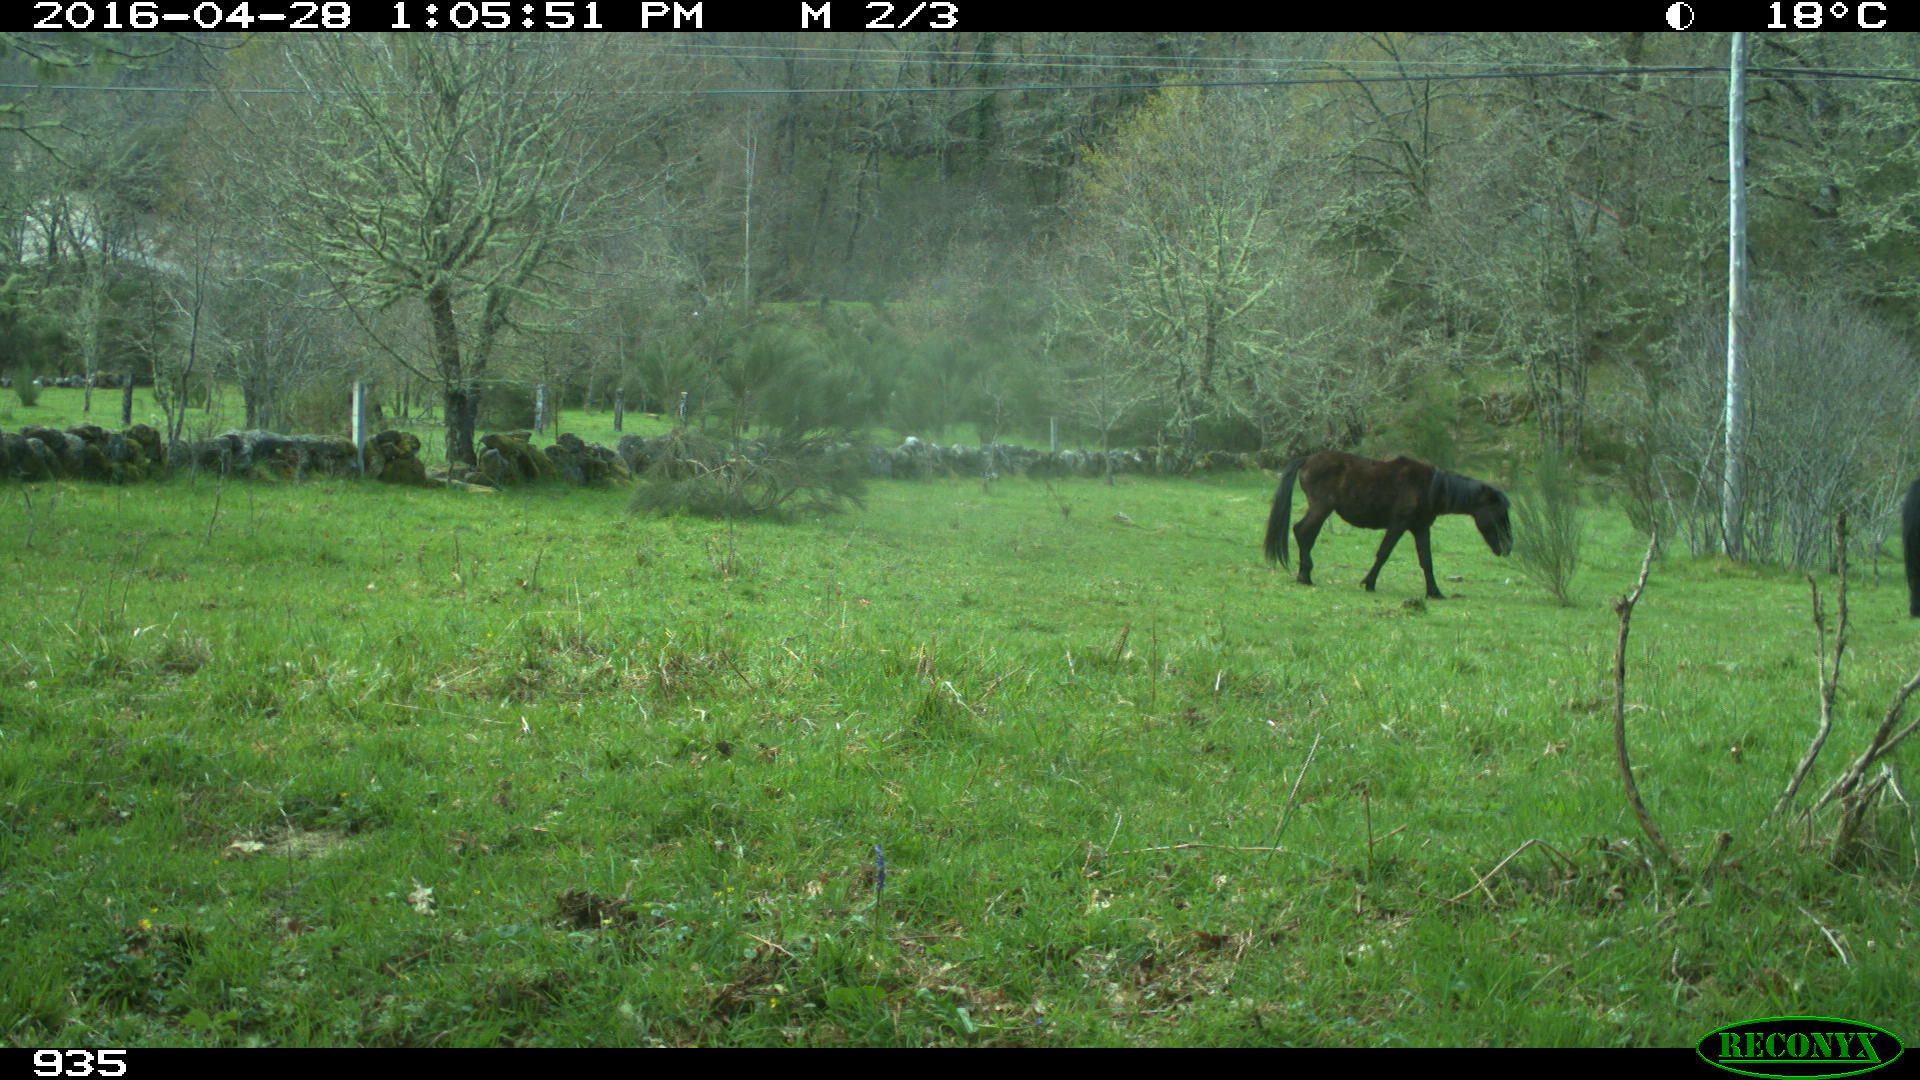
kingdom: Animalia
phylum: Chordata
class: Mammalia
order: Perissodactyla
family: Equidae
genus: Equus
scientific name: Equus caballus
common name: Horse
